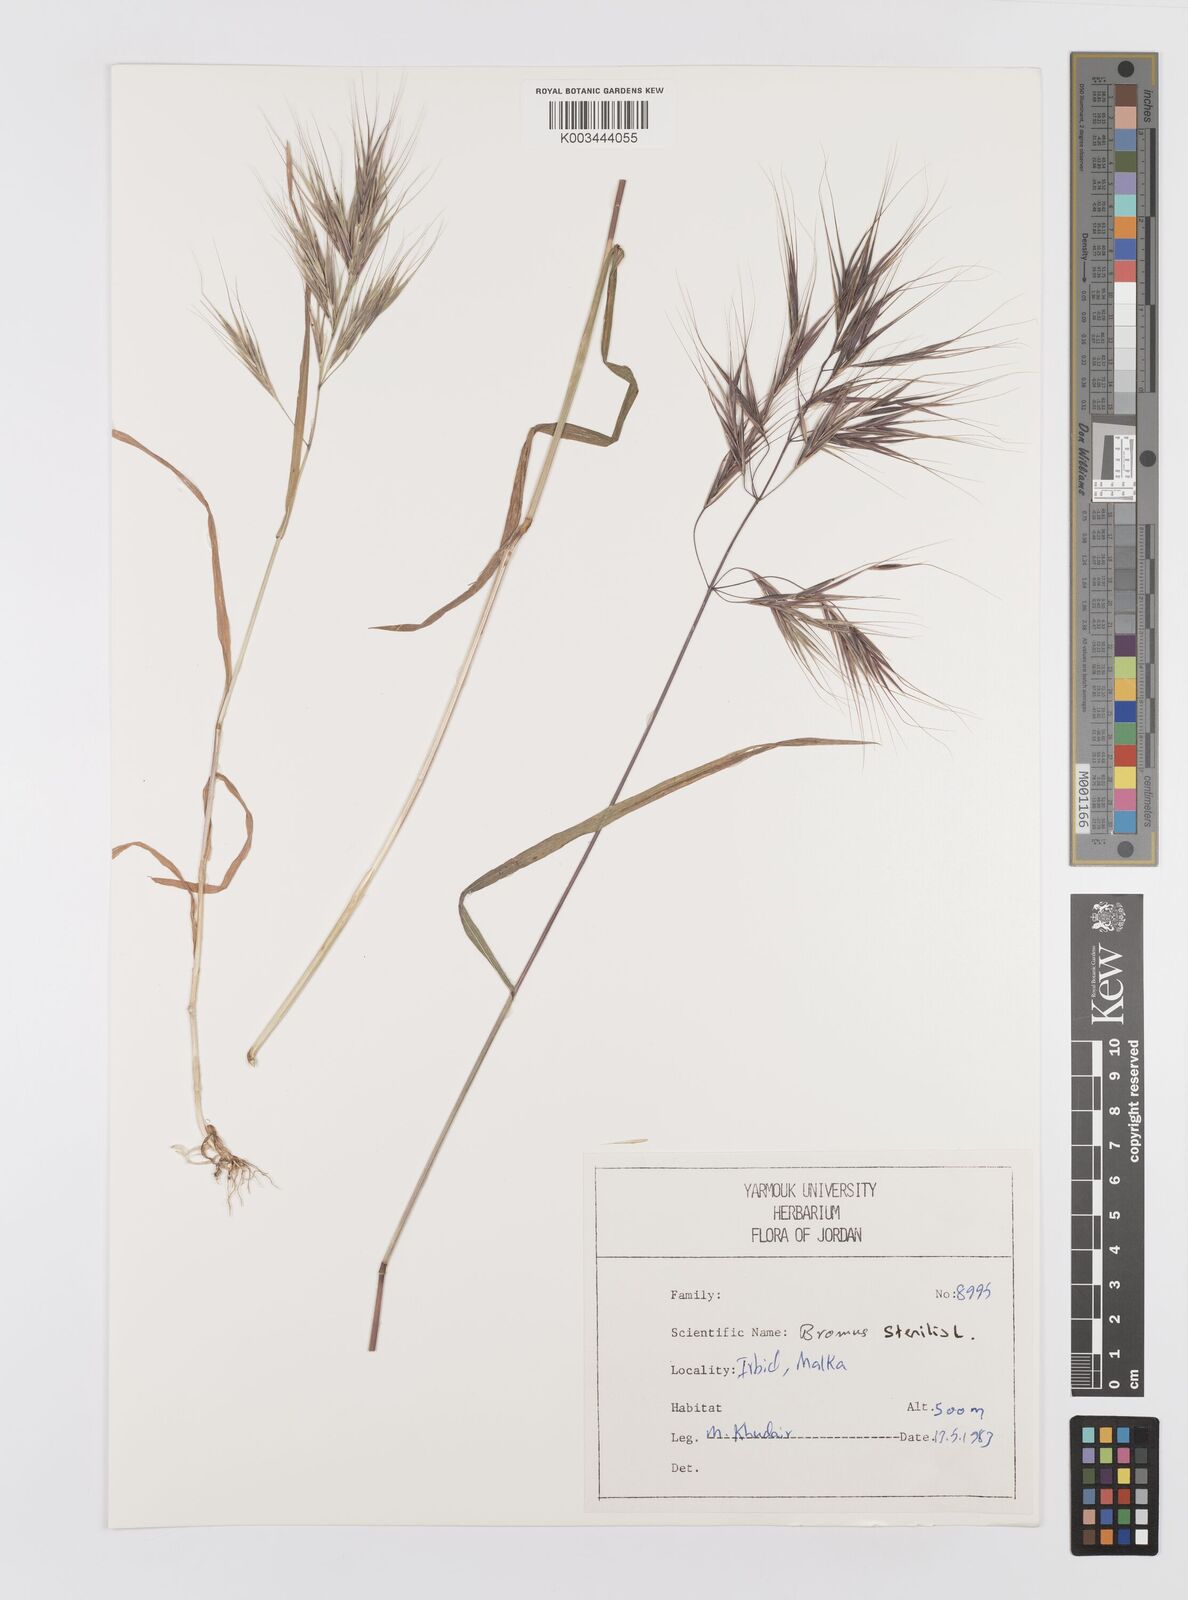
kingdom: Plantae
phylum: Tracheophyta
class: Liliopsida
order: Poales
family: Poaceae
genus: Bromus
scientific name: Bromus sterilis
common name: Poverty brome
